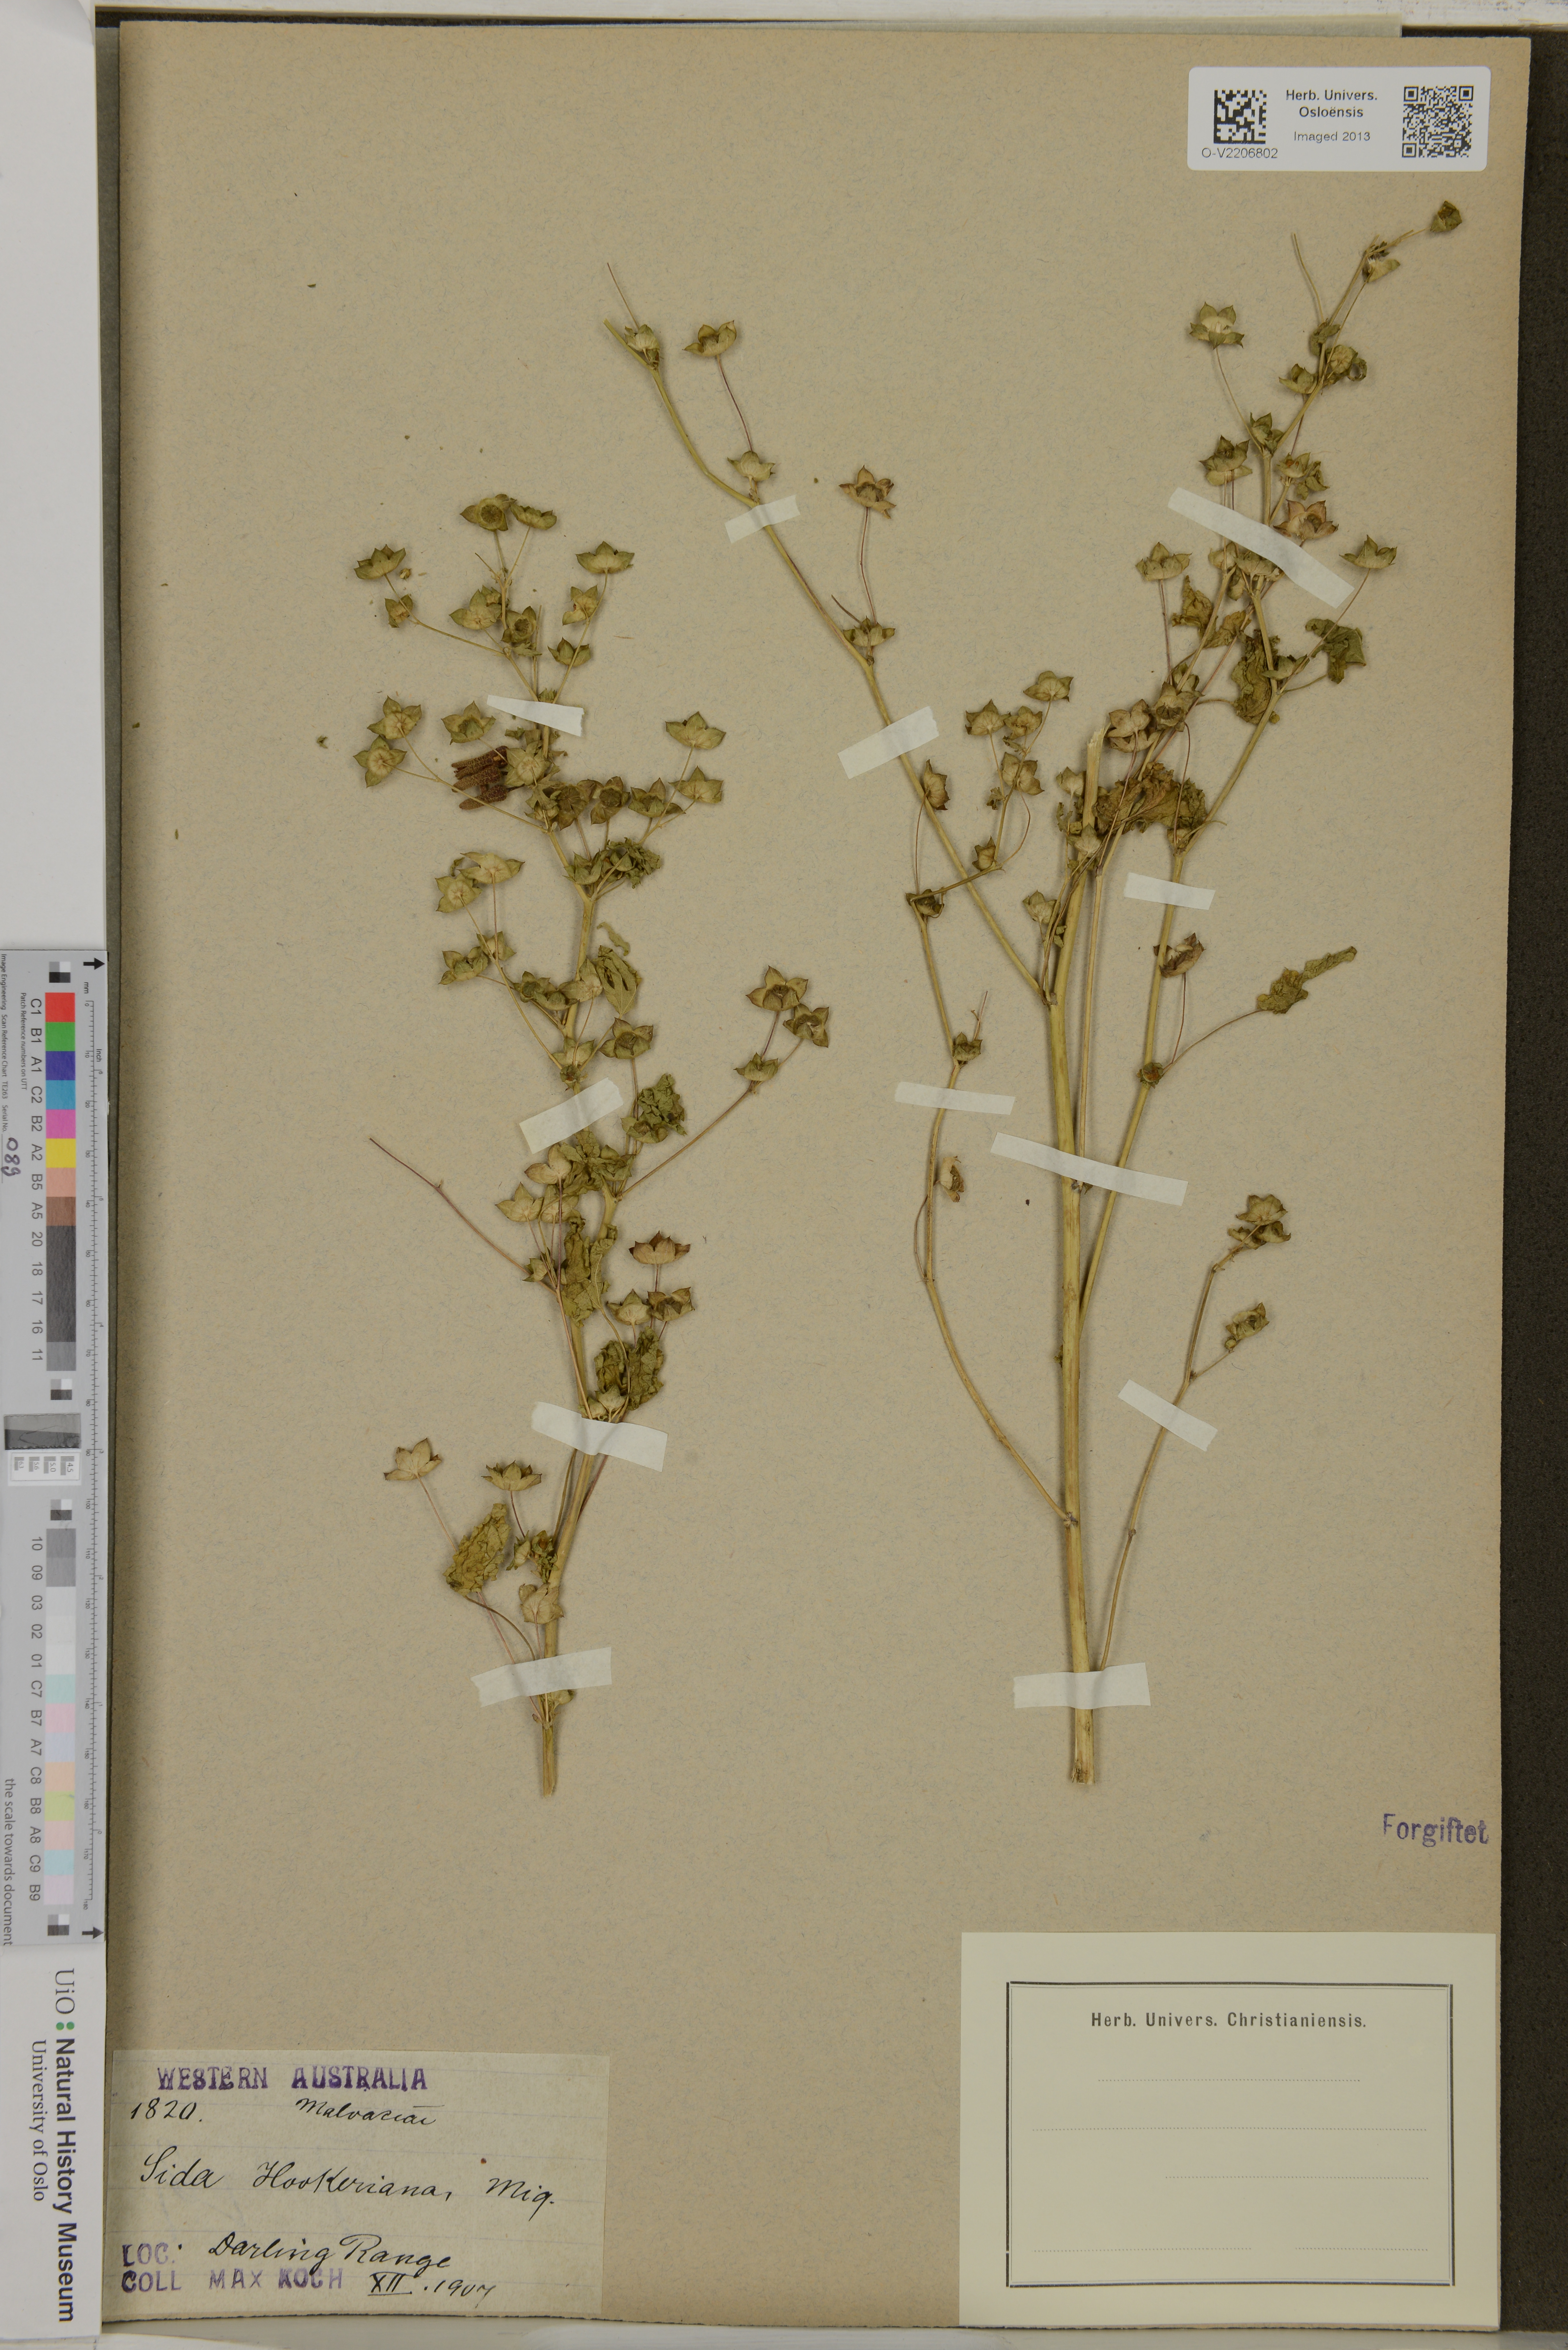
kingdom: Plantae
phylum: Tracheophyta
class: Magnoliopsida
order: Malvales
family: Malvaceae
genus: Sida
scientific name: Sida hookeriana
